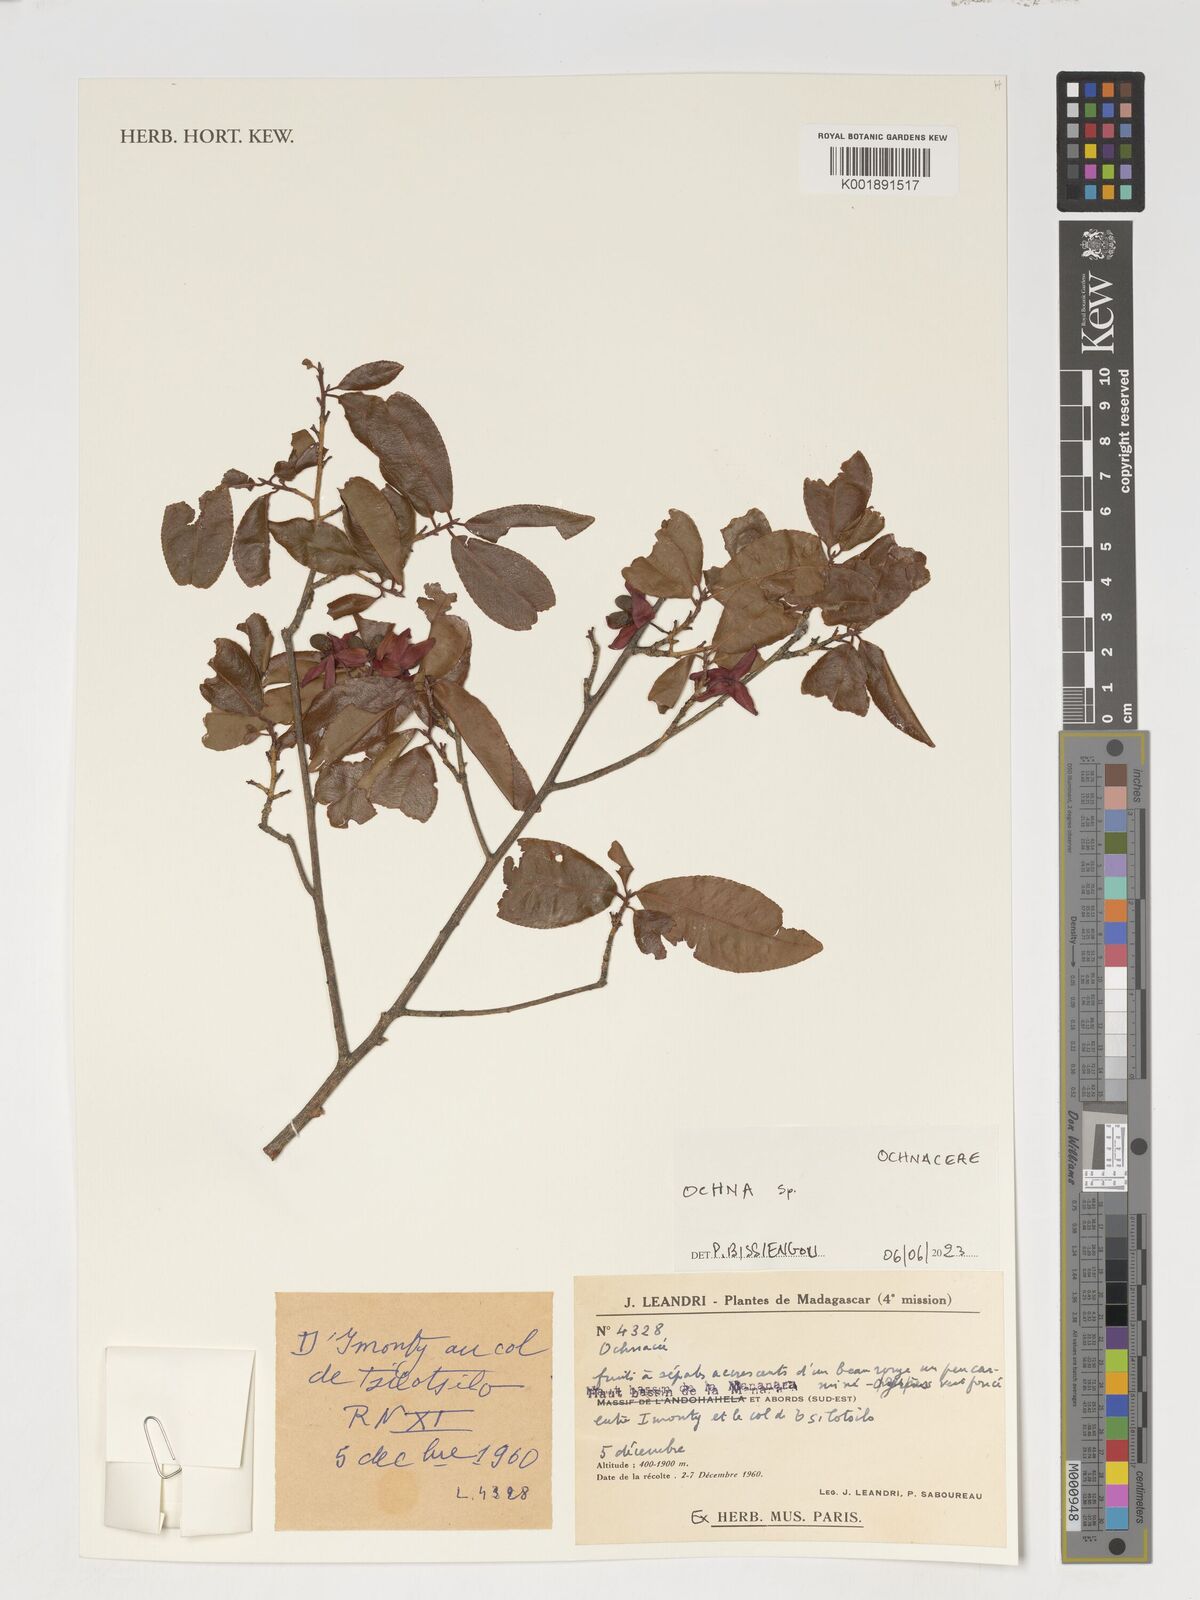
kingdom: Plantae
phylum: Tracheophyta
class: Magnoliopsida
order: Malpighiales
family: Ochnaceae
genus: Ochna
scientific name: Ochna
